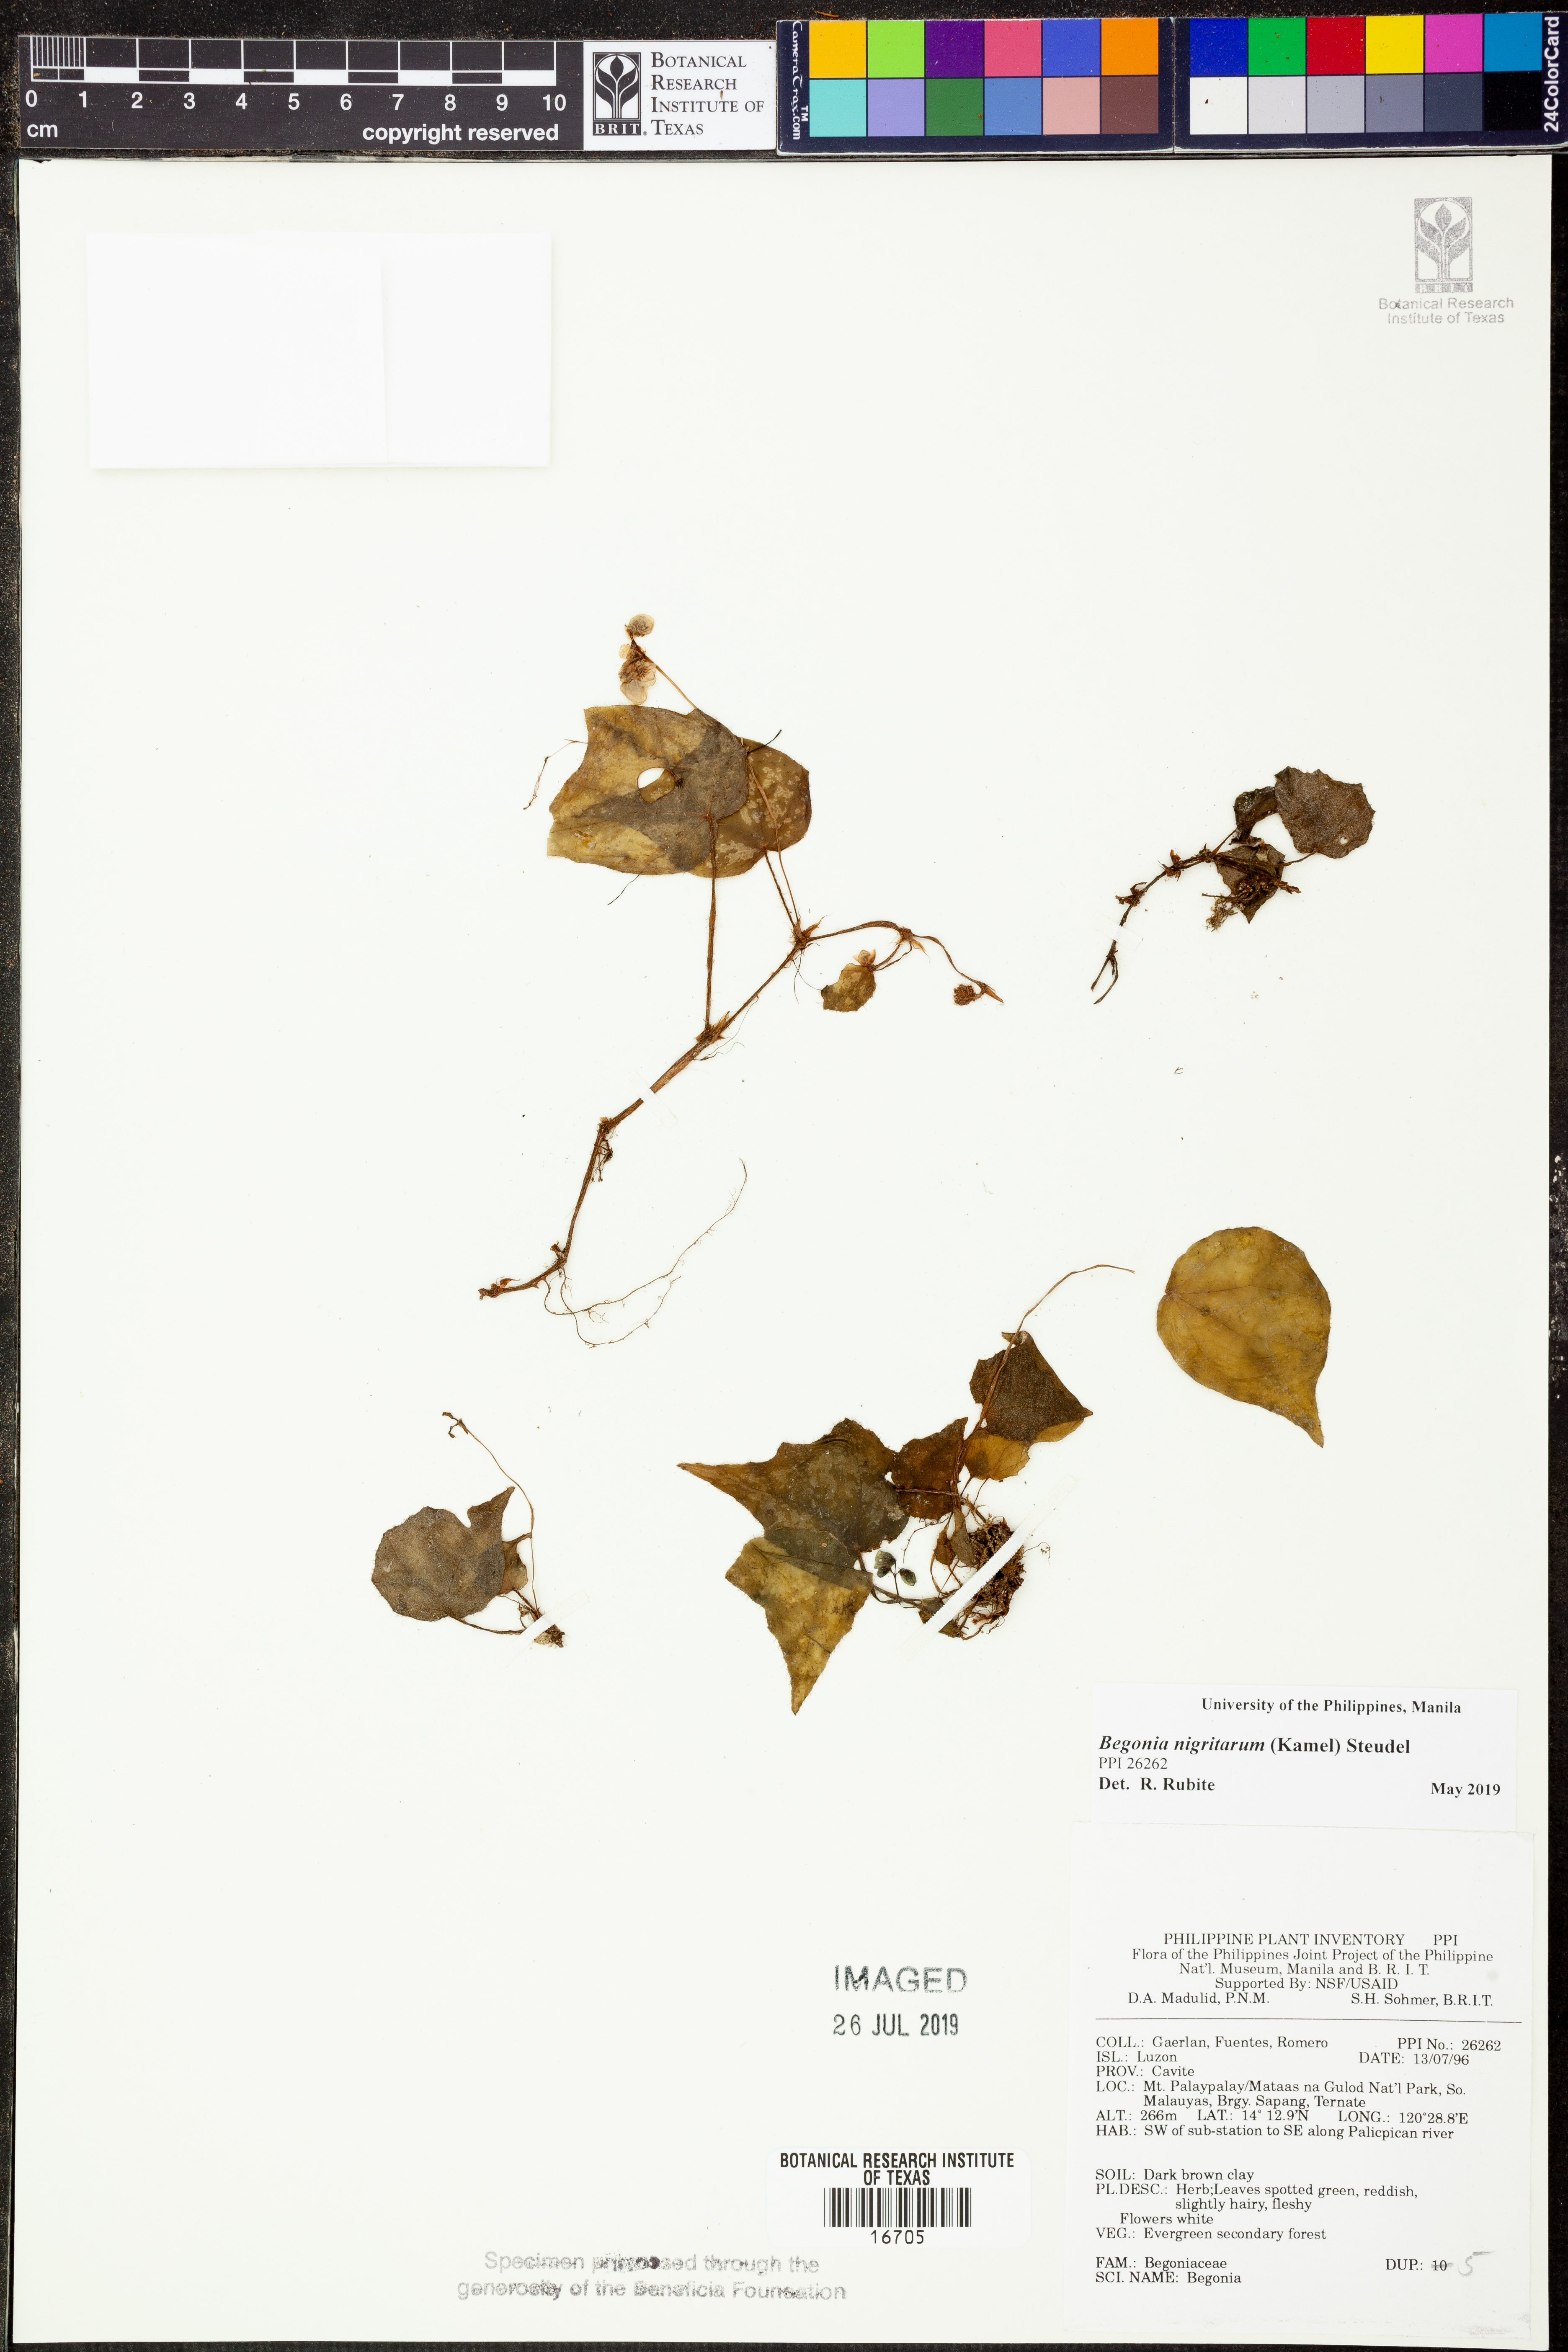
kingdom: Plantae
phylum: Tracheophyta
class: Magnoliopsida
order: Cucurbitales
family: Begoniaceae
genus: Begonia
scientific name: Begonia nigritarum
